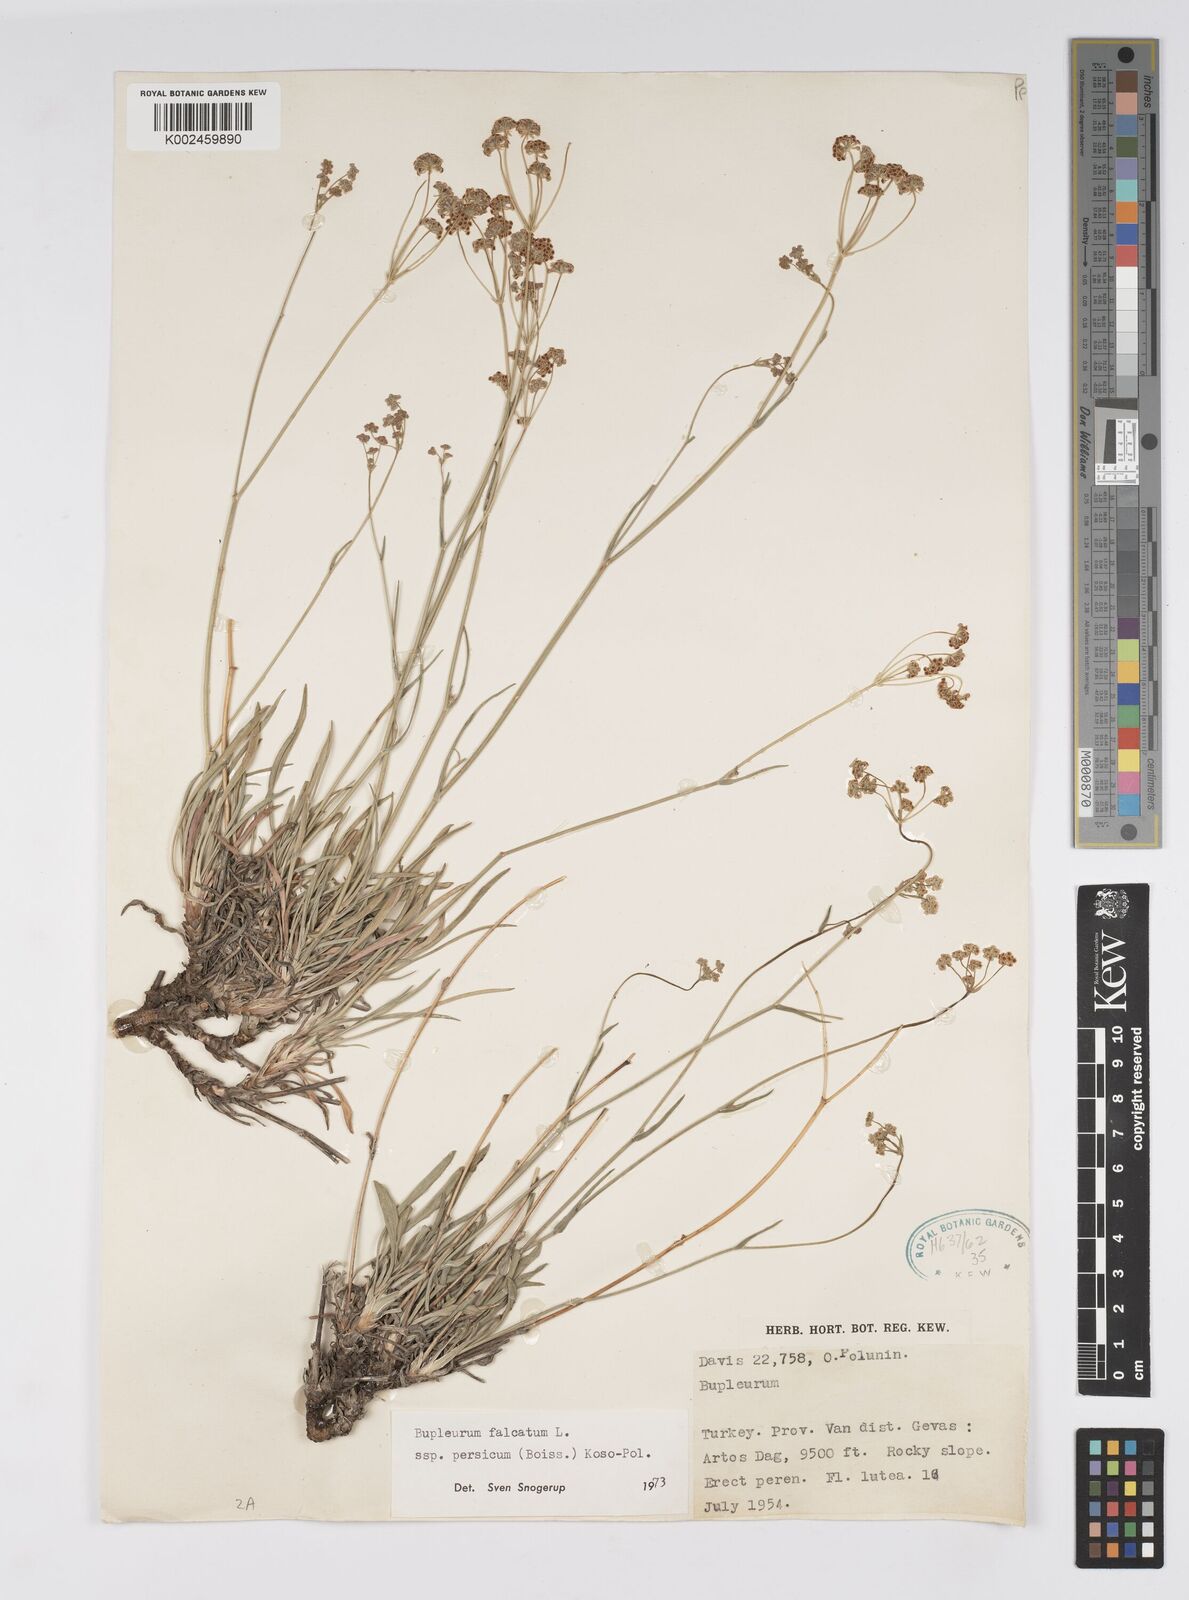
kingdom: Plantae
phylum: Tracheophyta
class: Magnoliopsida
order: Apiales
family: Apiaceae
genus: Bupleurum
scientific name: Bupleurum persicum
